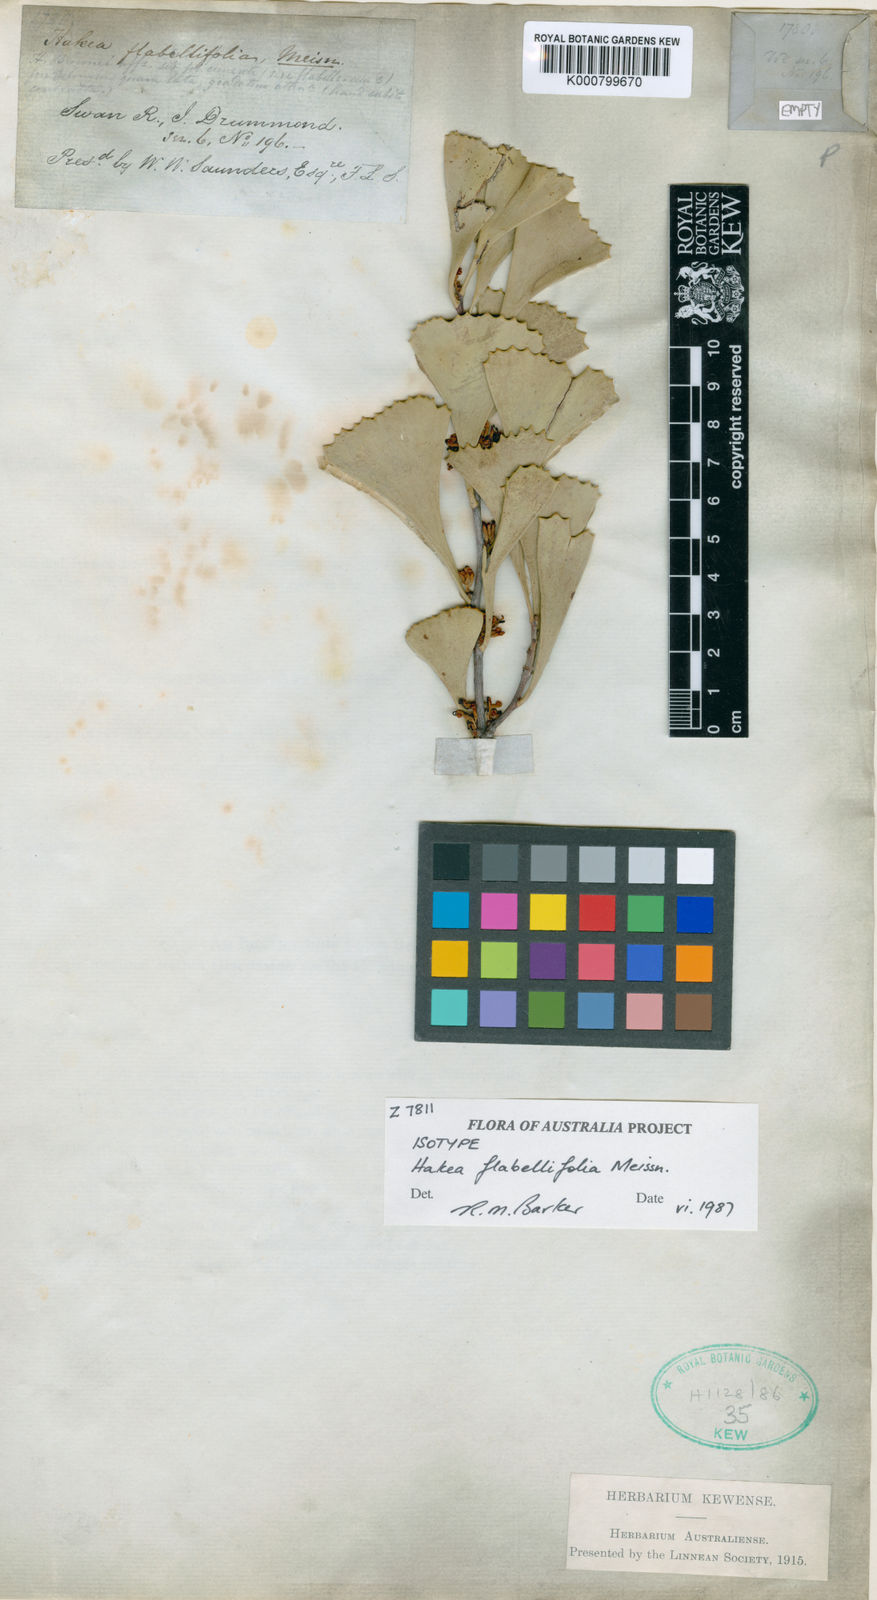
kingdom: Plantae
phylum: Tracheophyta
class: Magnoliopsida
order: Proteales
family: Proteaceae
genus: Hakea
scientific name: Hakea flabellifolia
